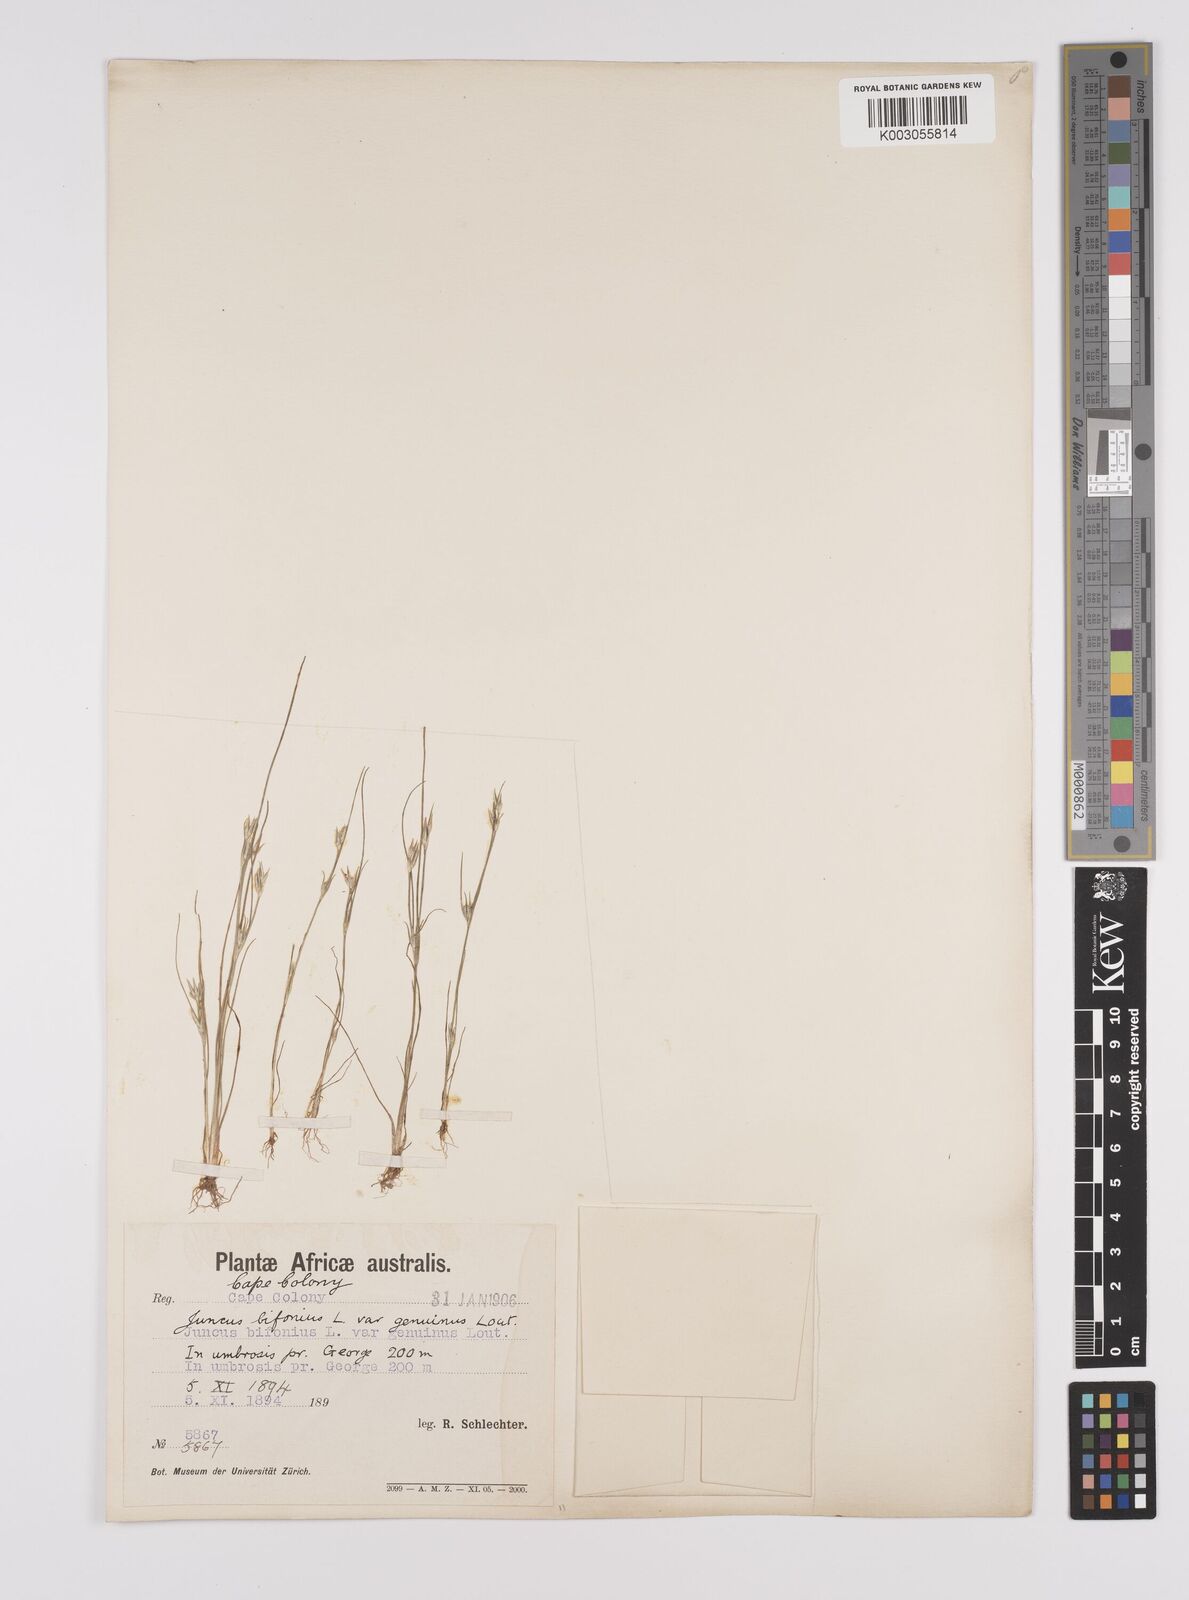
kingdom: Plantae
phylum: Tracheophyta
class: Liliopsida
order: Poales
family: Juncaceae
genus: Juncus
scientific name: Juncus bufonius
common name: Toad rush
